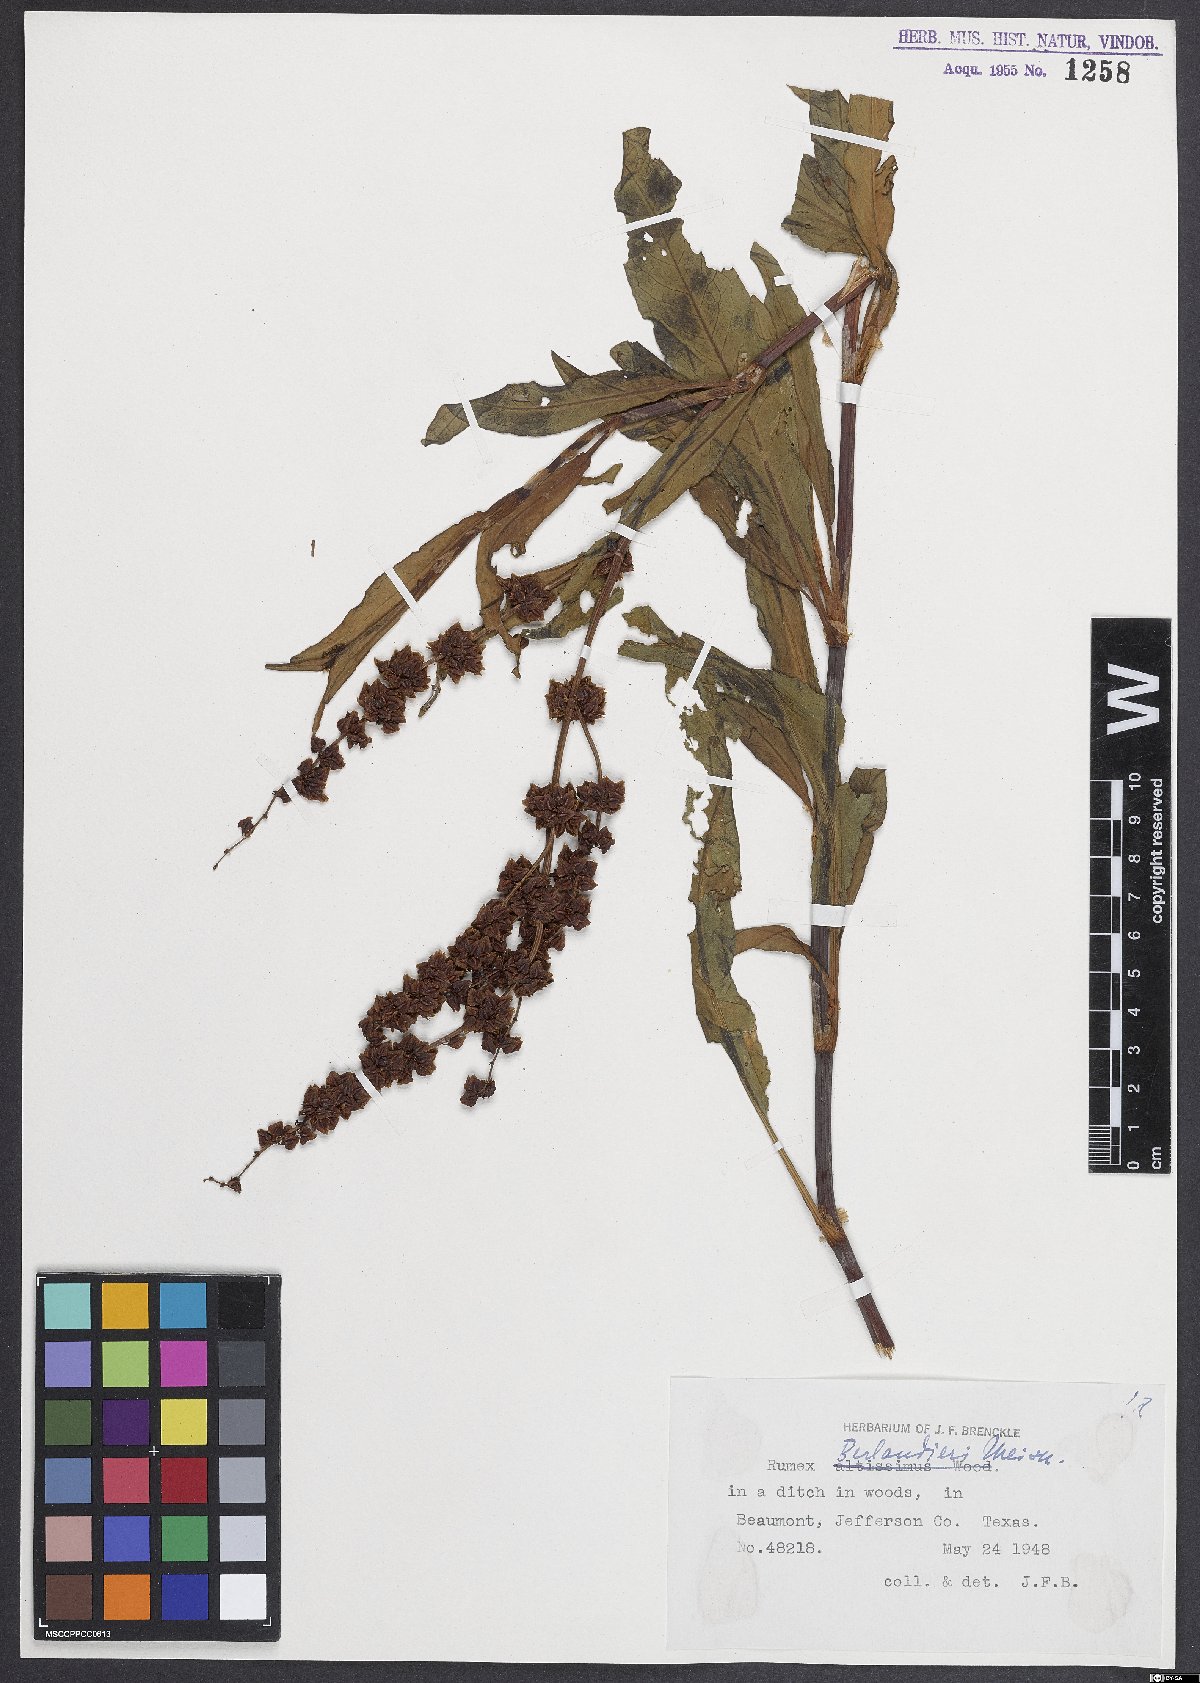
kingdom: Plantae
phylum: Tracheophyta
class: Magnoliopsida
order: Caryophyllales
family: Polygonaceae
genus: Rumex
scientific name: Rumex chrysocarpus
